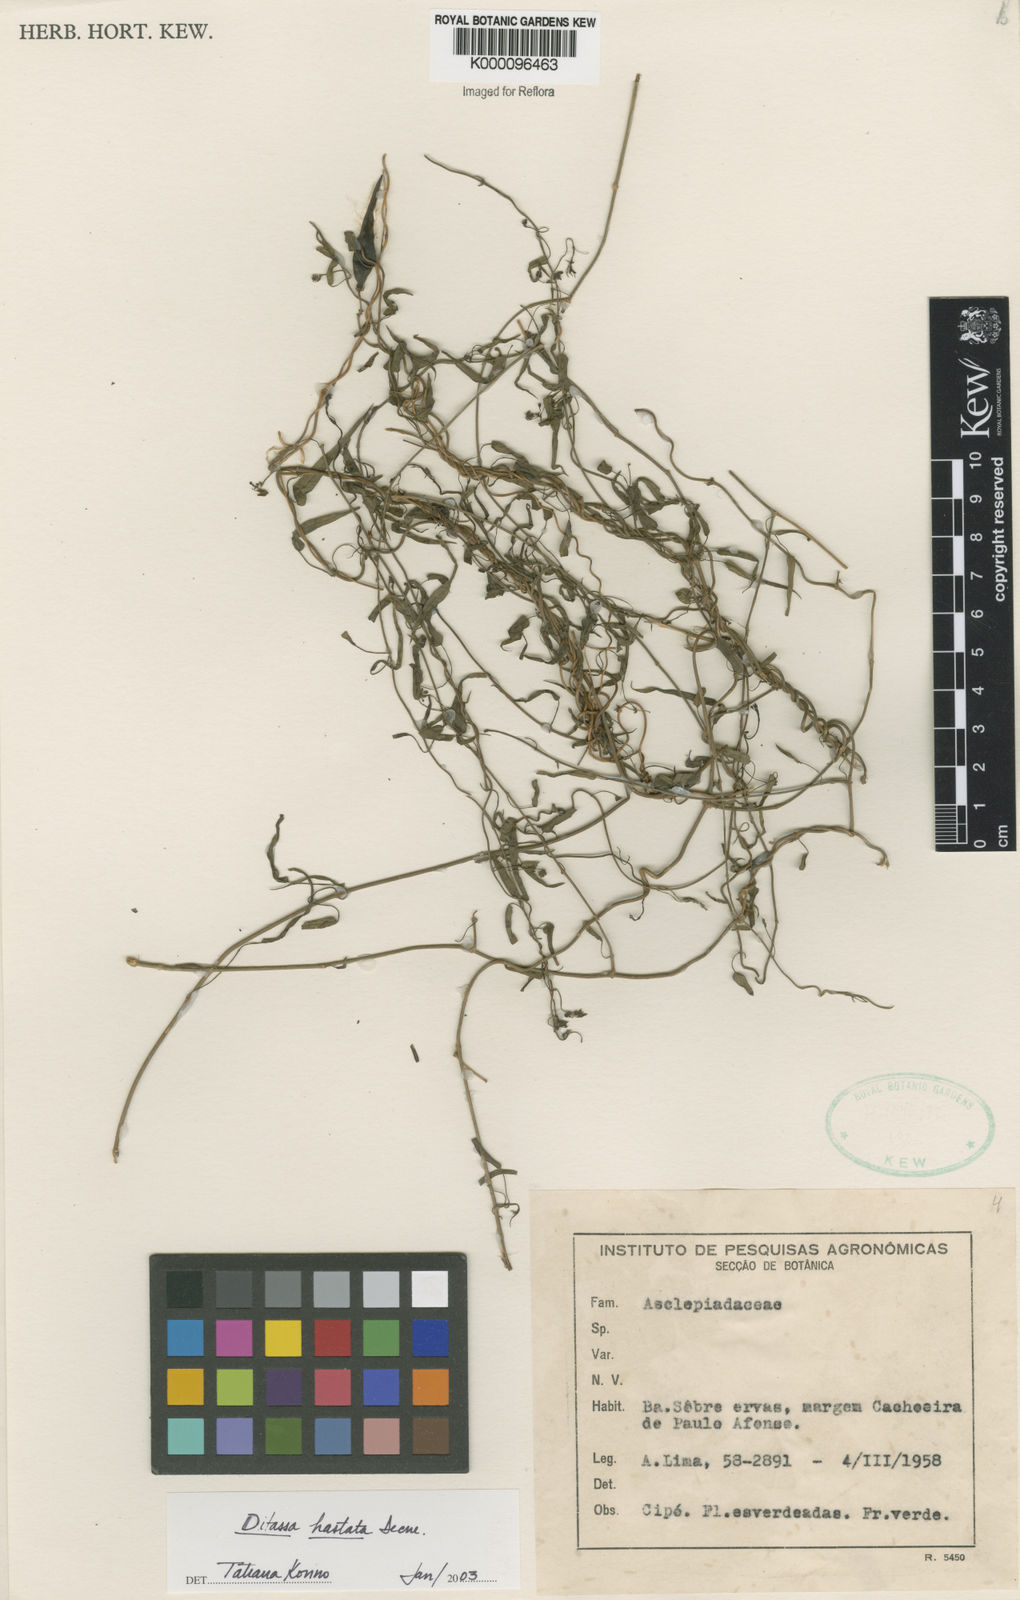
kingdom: Plantae
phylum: Tracheophyta
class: Magnoliopsida
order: Gentianales
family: Apocynaceae
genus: Ditassa
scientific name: Ditassa hastata
